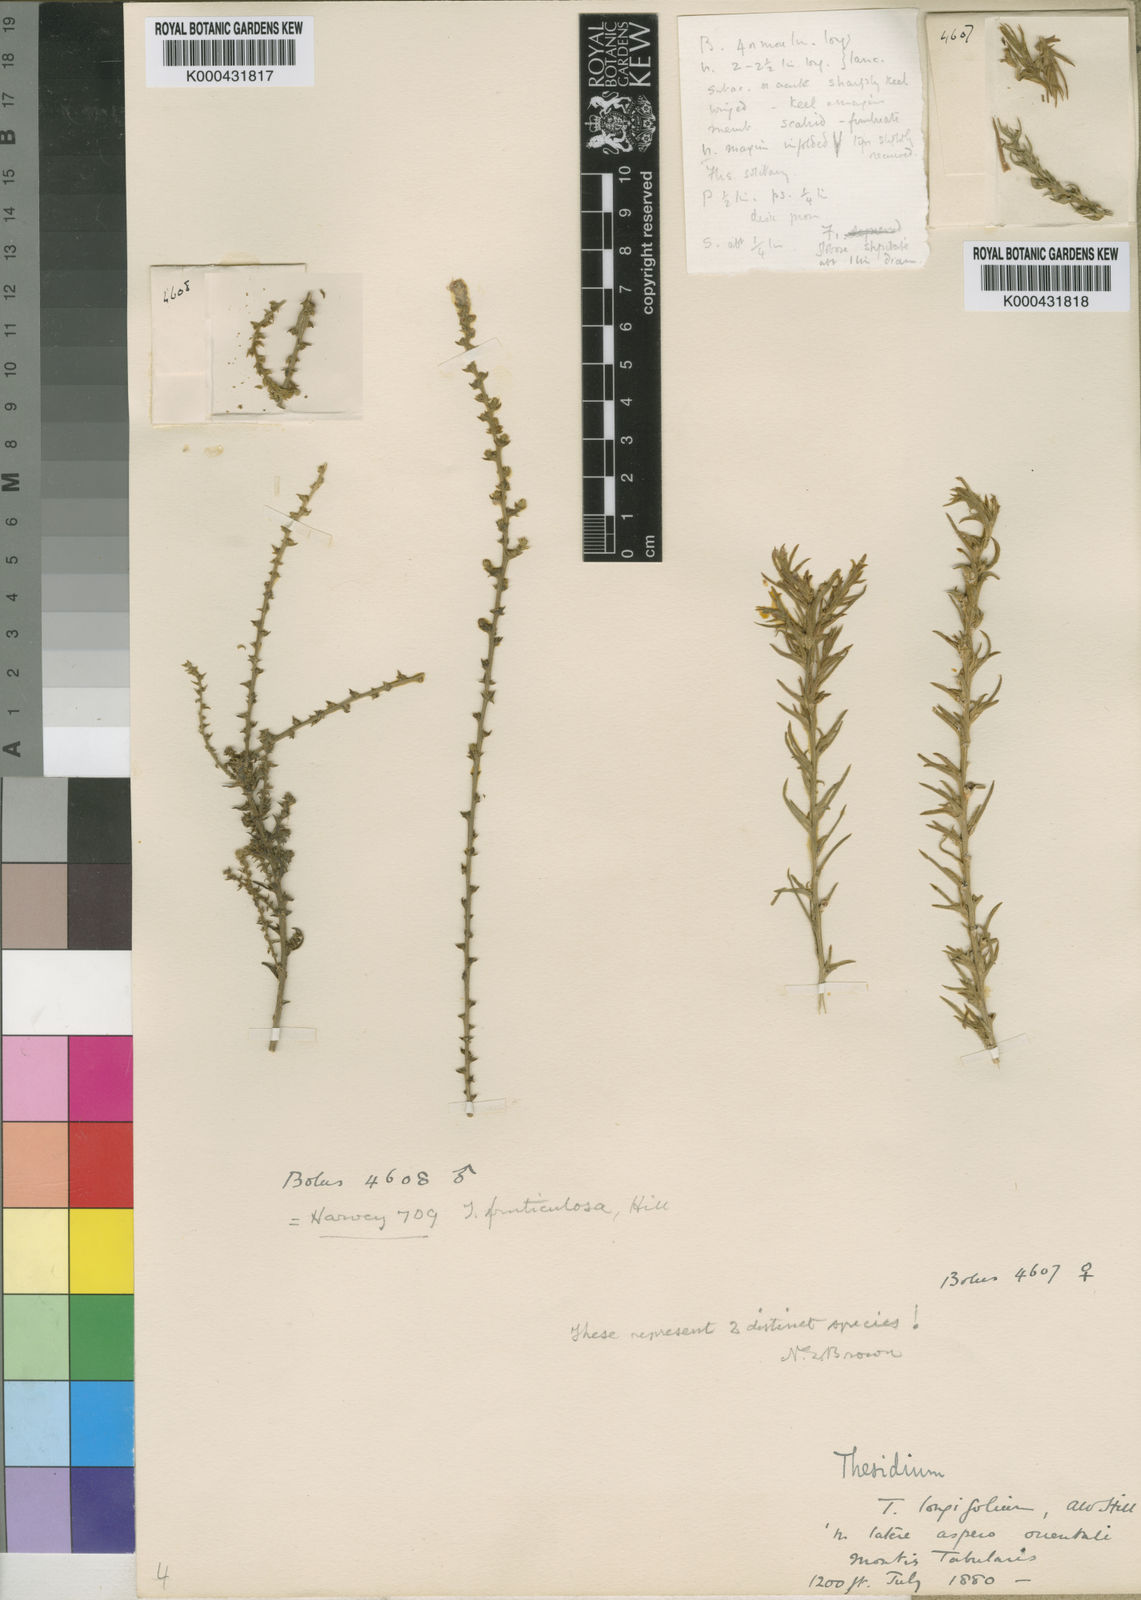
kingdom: Plantae
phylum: Tracheophyta
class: Magnoliopsida
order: Santalales
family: Thesiaceae
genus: Thesium
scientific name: Thesium longicaule
